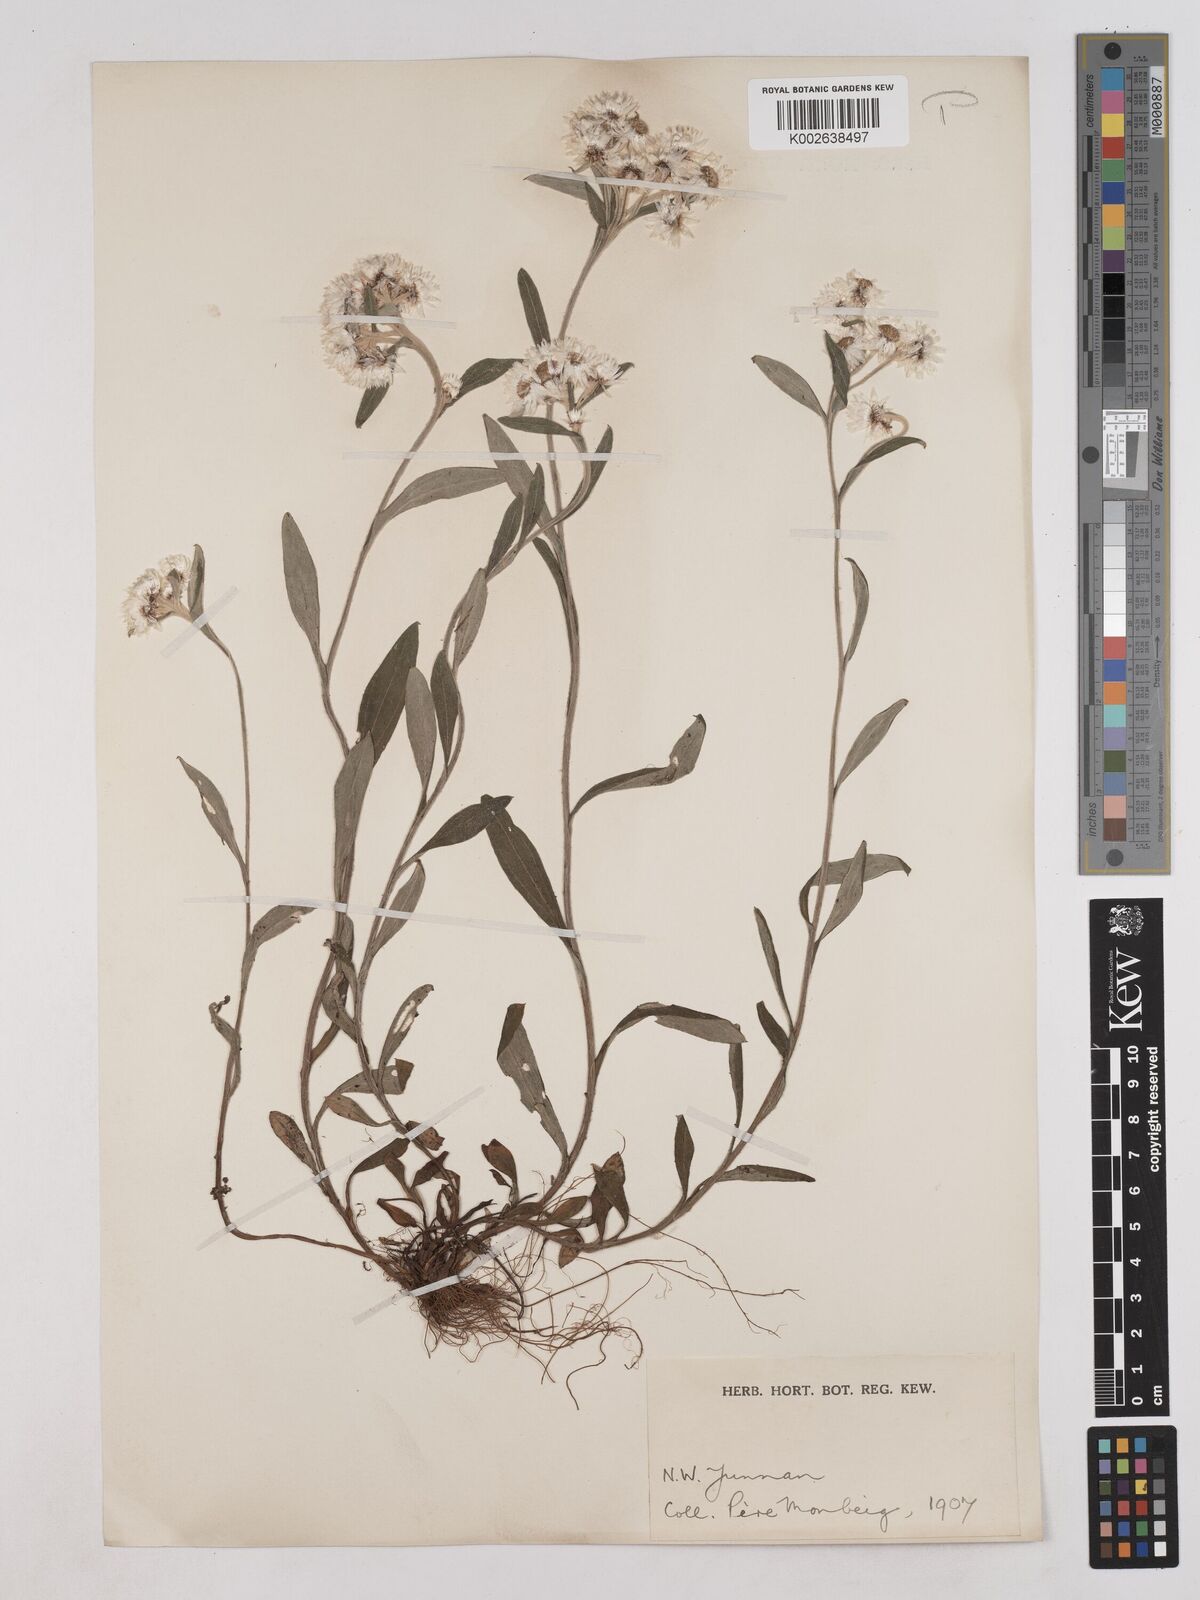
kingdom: Plantae
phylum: Tracheophyta
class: Magnoliopsida
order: Asterales
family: Asteraceae
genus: Anaphalis
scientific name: Anaphalis nepalensis
